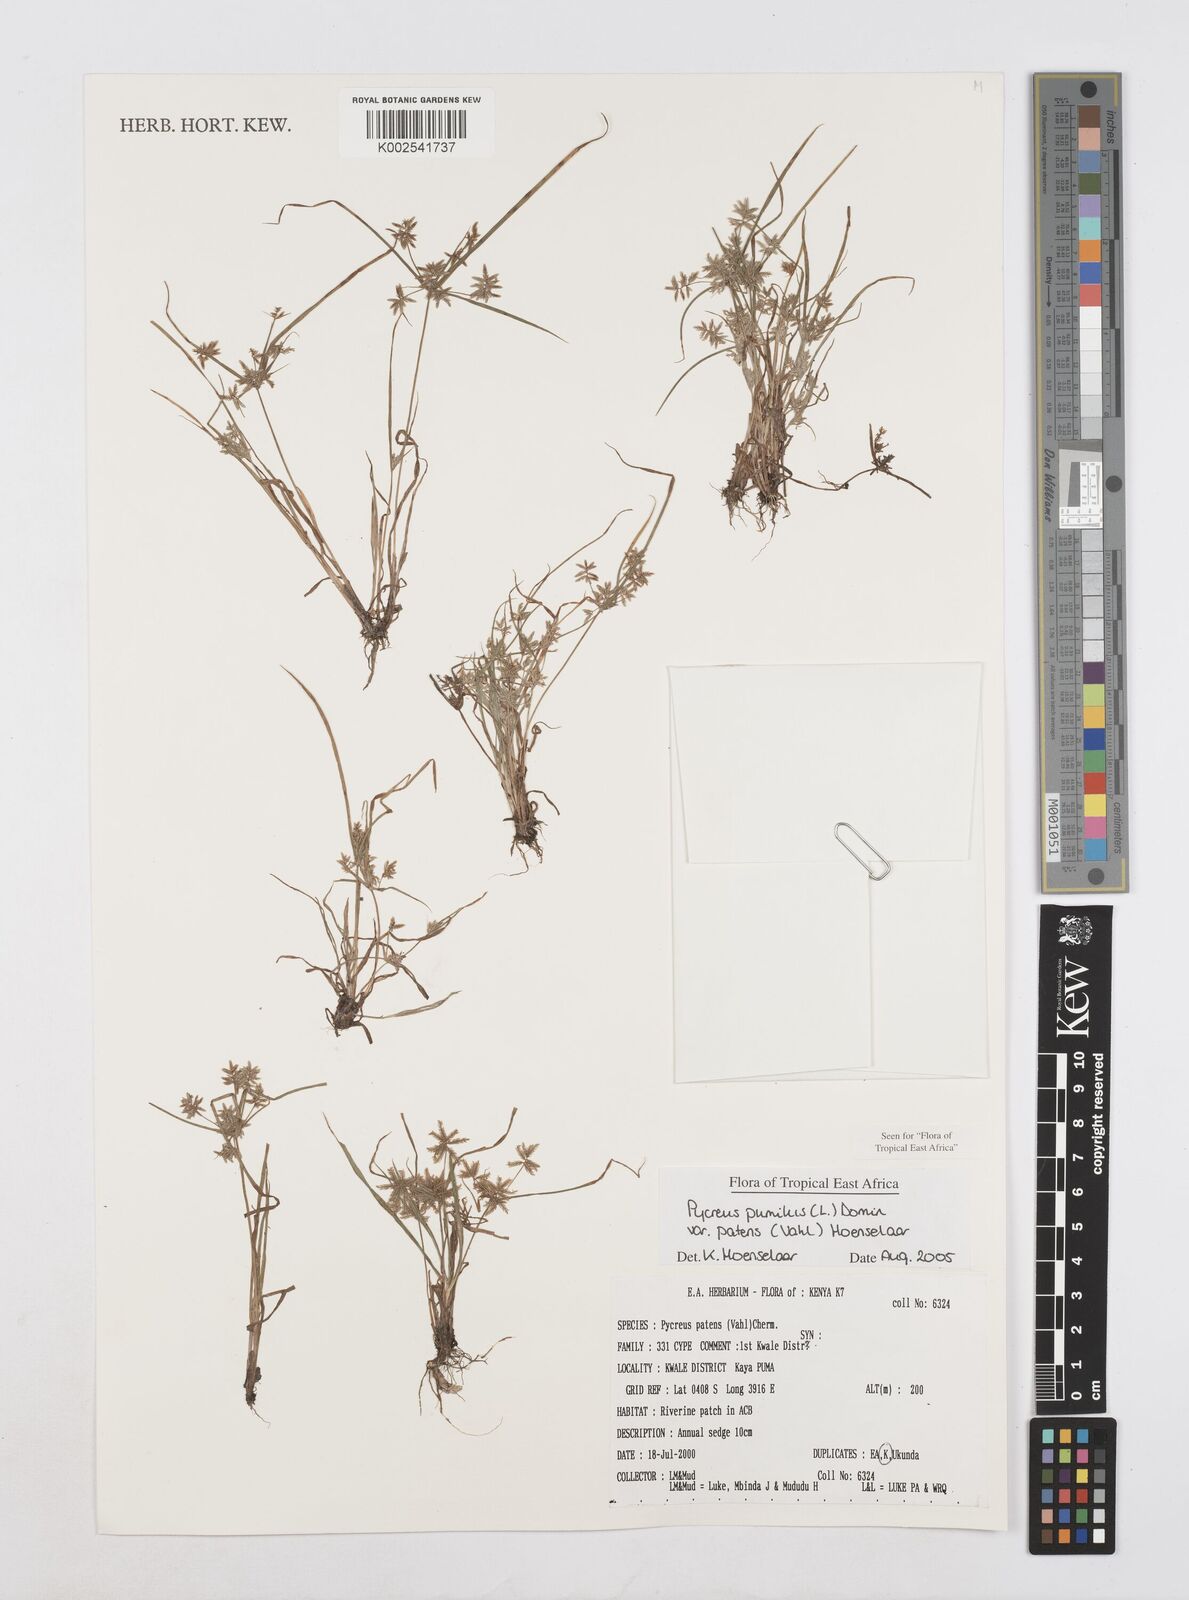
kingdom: Plantae
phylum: Tracheophyta
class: Liliopsida
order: Poales
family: Cyperaceae
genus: Cyperus
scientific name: Cyperus pumilus
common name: Low flatsedge
